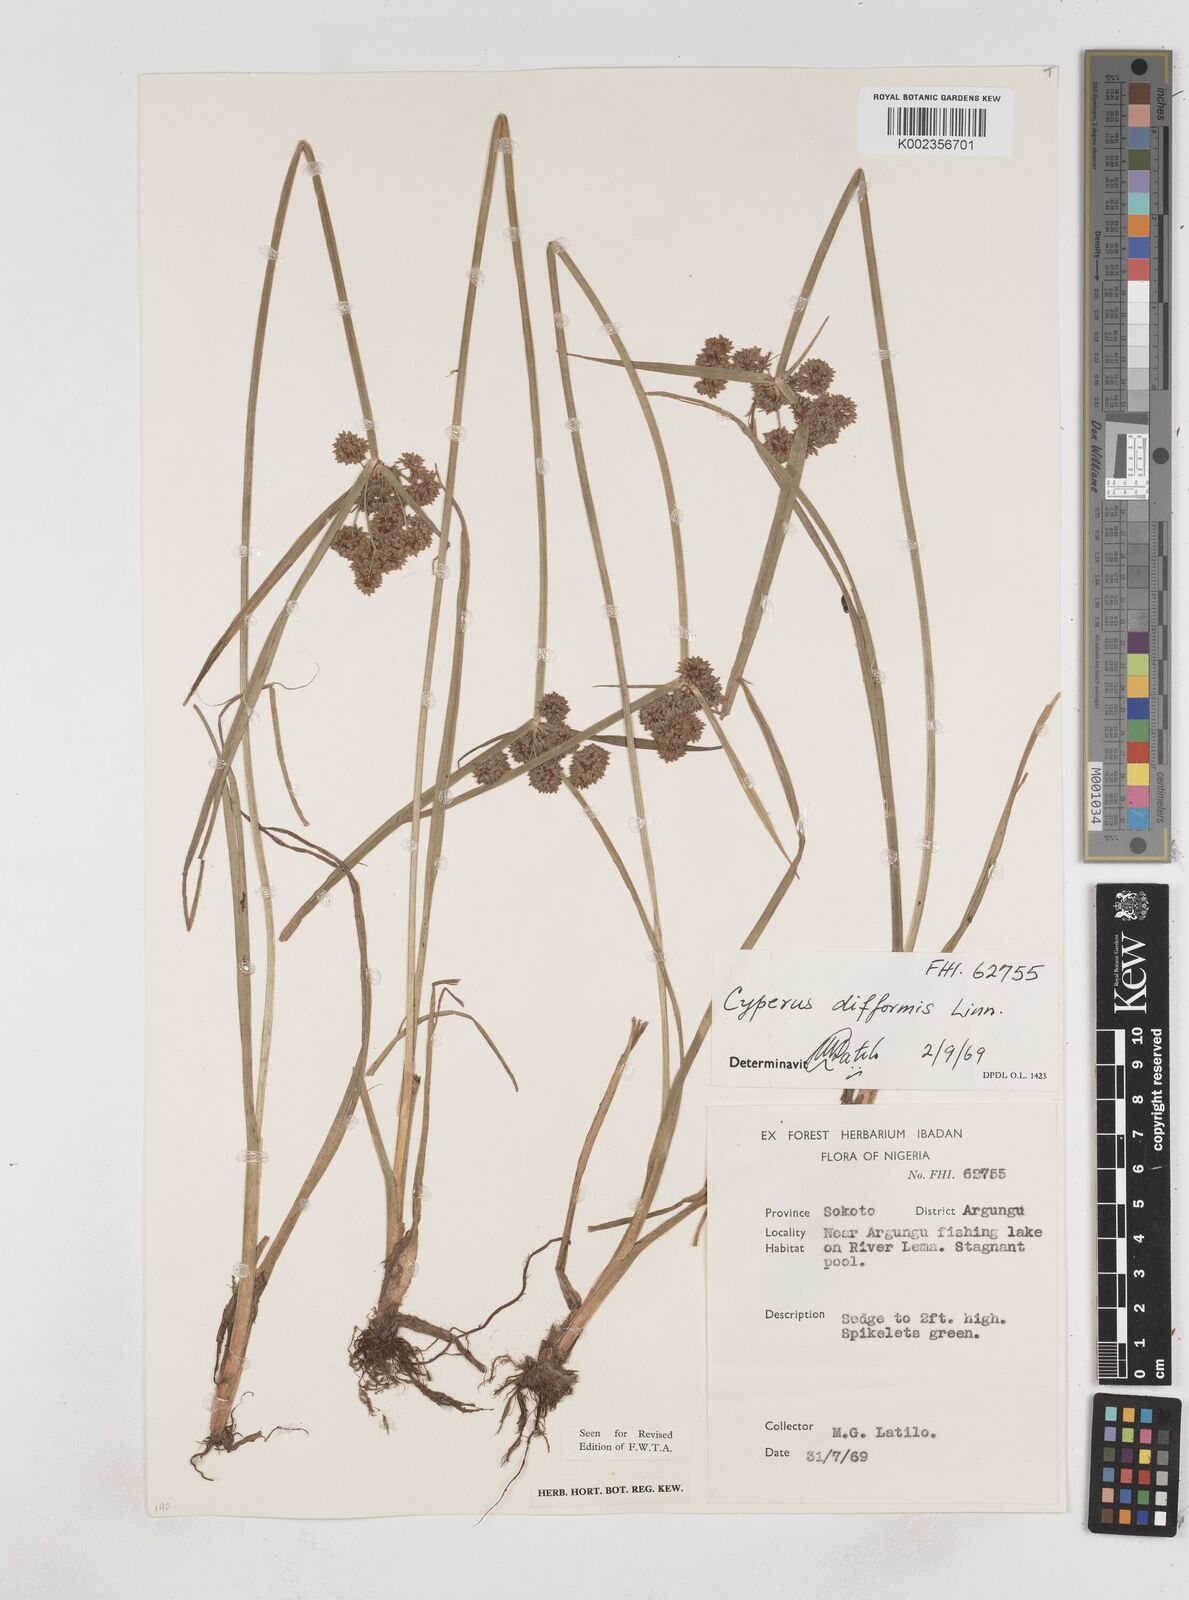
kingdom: Plantae
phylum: Tracheophyta
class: Liliopsida
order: Poales
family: Cyperaceae
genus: Cyperus
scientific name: Cyperus difformis
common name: Variable flatsedge
